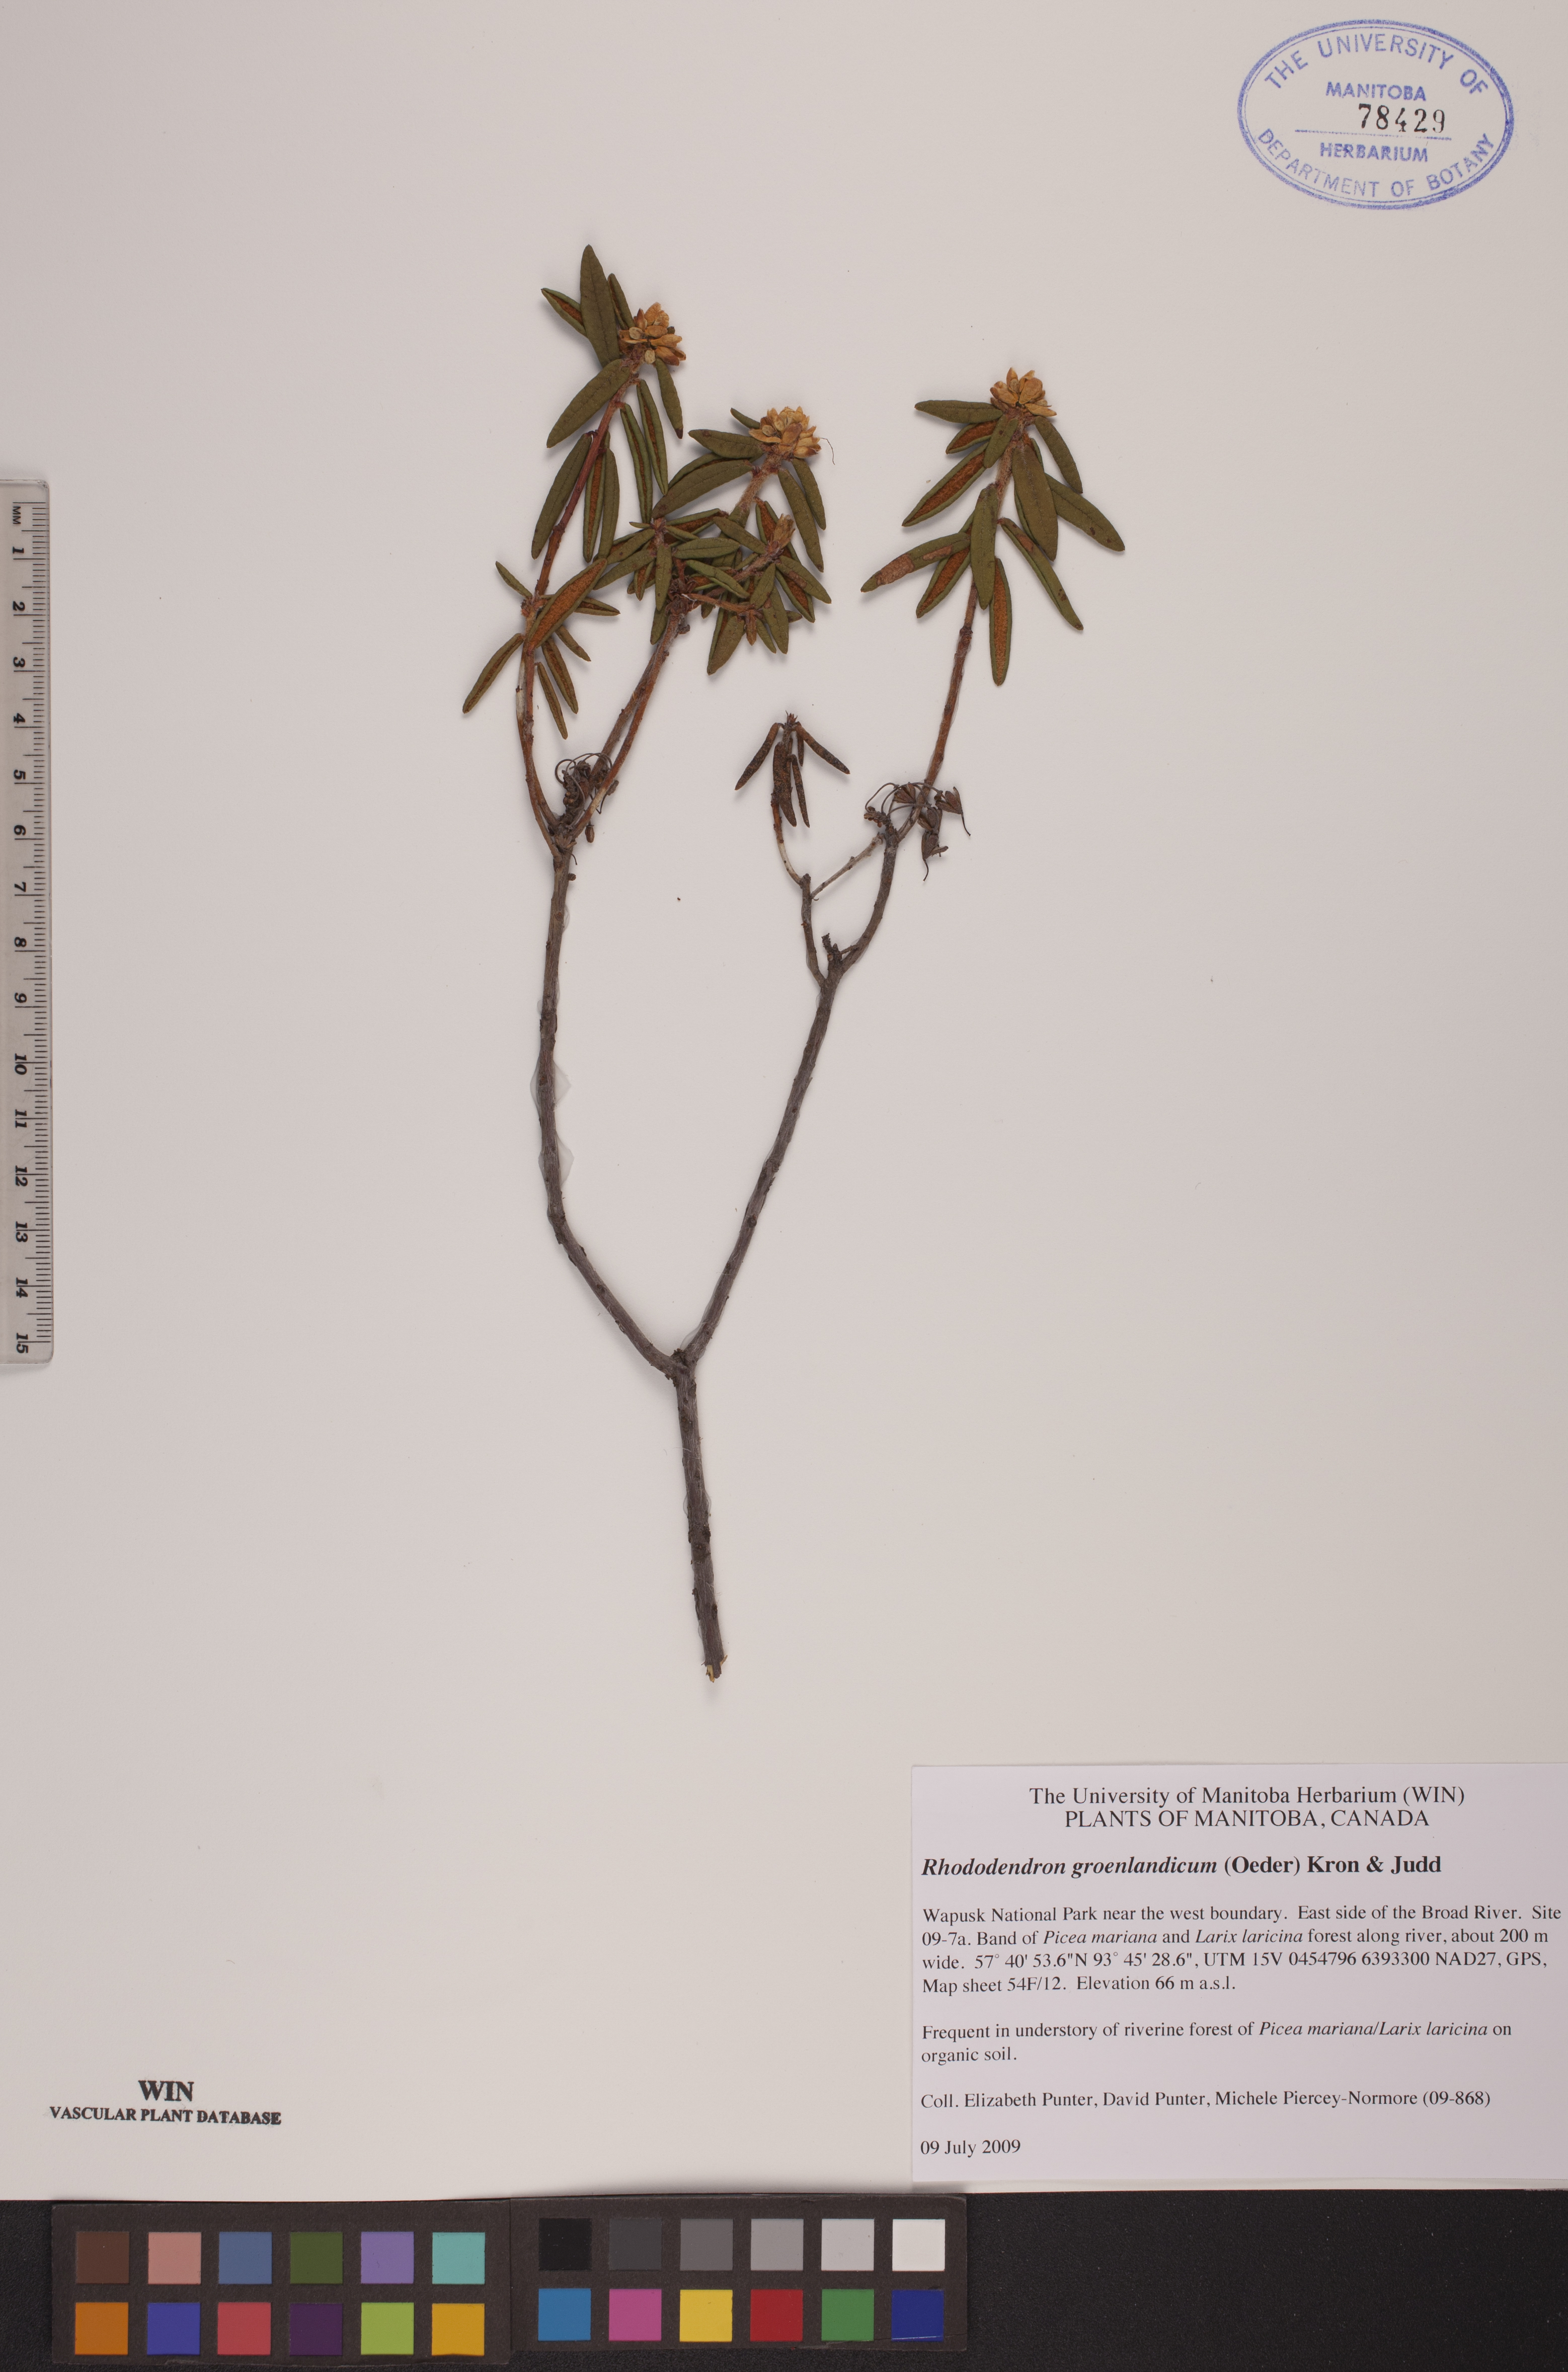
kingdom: Plantae
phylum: Tracheophyta
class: Magnoliopsida
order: Ericales
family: Ericaceae
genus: Rhododendron
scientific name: Rhododendron groenlandicum
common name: Bog labrador tea
